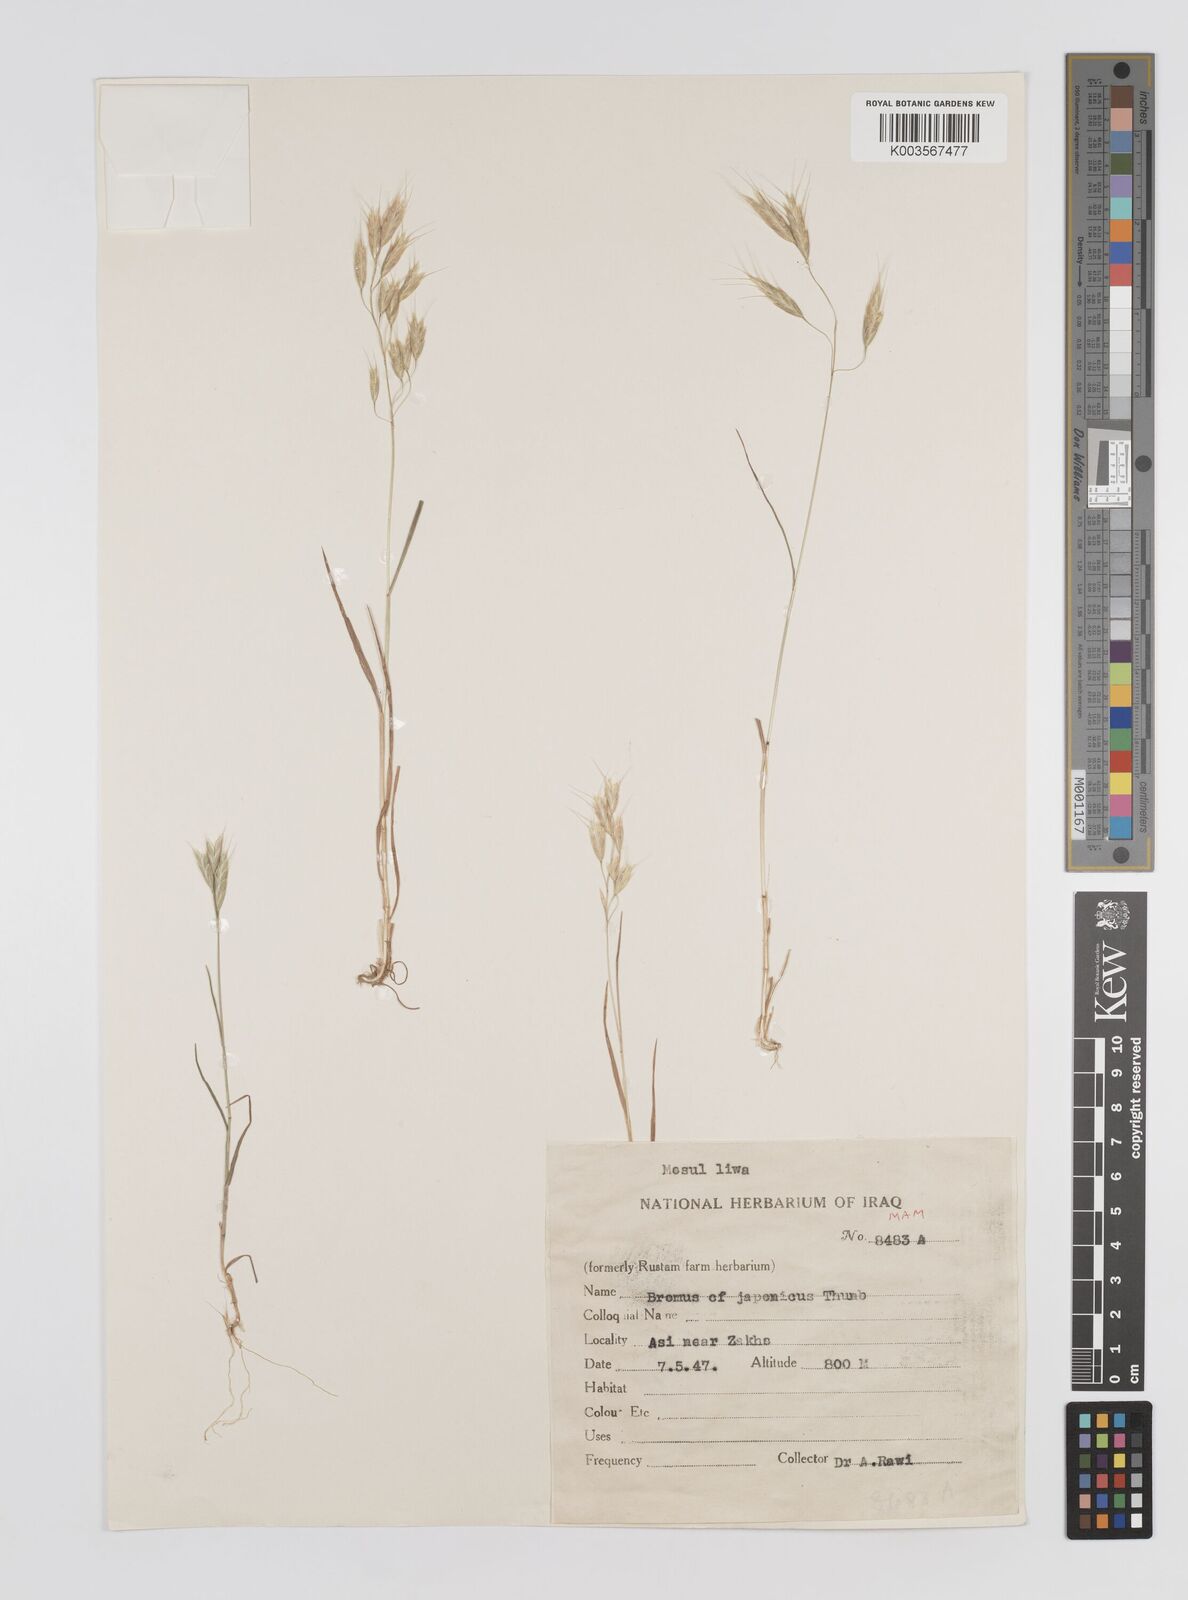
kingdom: Plantae
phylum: Tracheophyta
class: Liliopsida
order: Poales
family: Poaceae
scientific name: Poaceae
